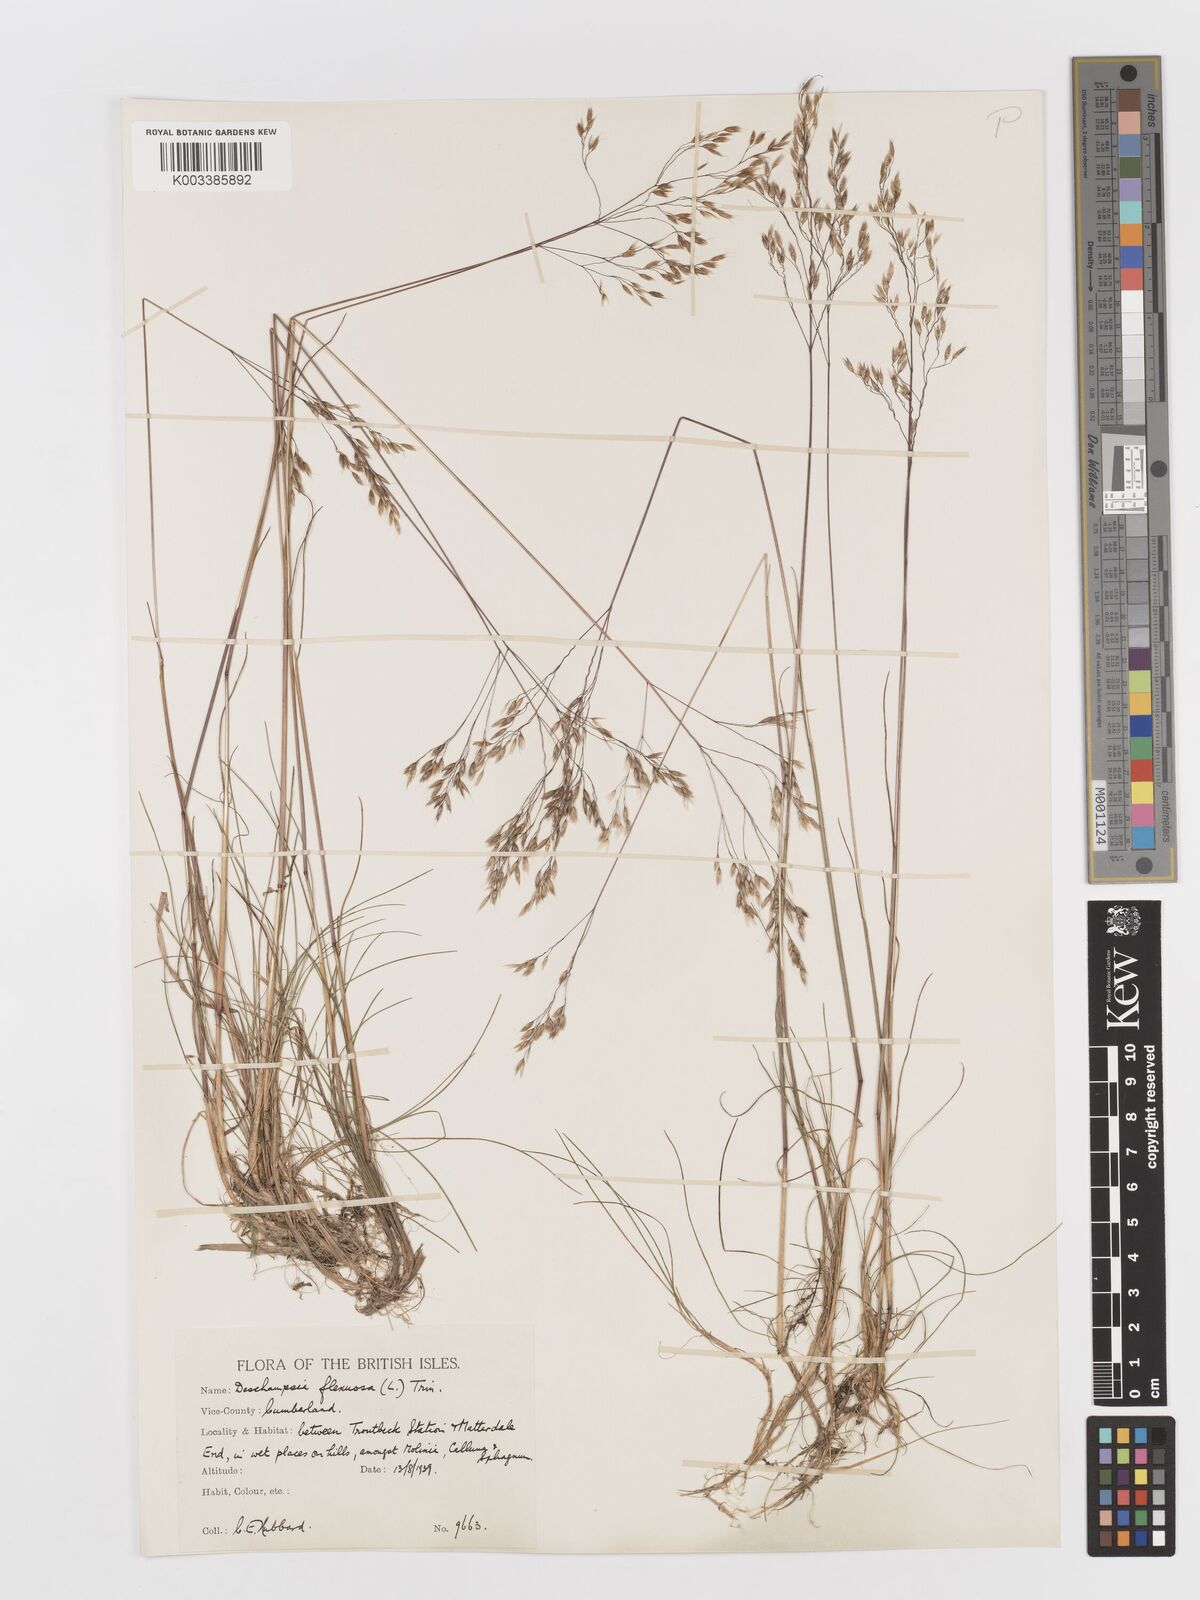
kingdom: Plantae
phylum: Tracheophyta
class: Liliopsida
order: Poales
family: Poaceae
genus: Avenella
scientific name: Avenella flexuosa
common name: Wavy hairgrass
